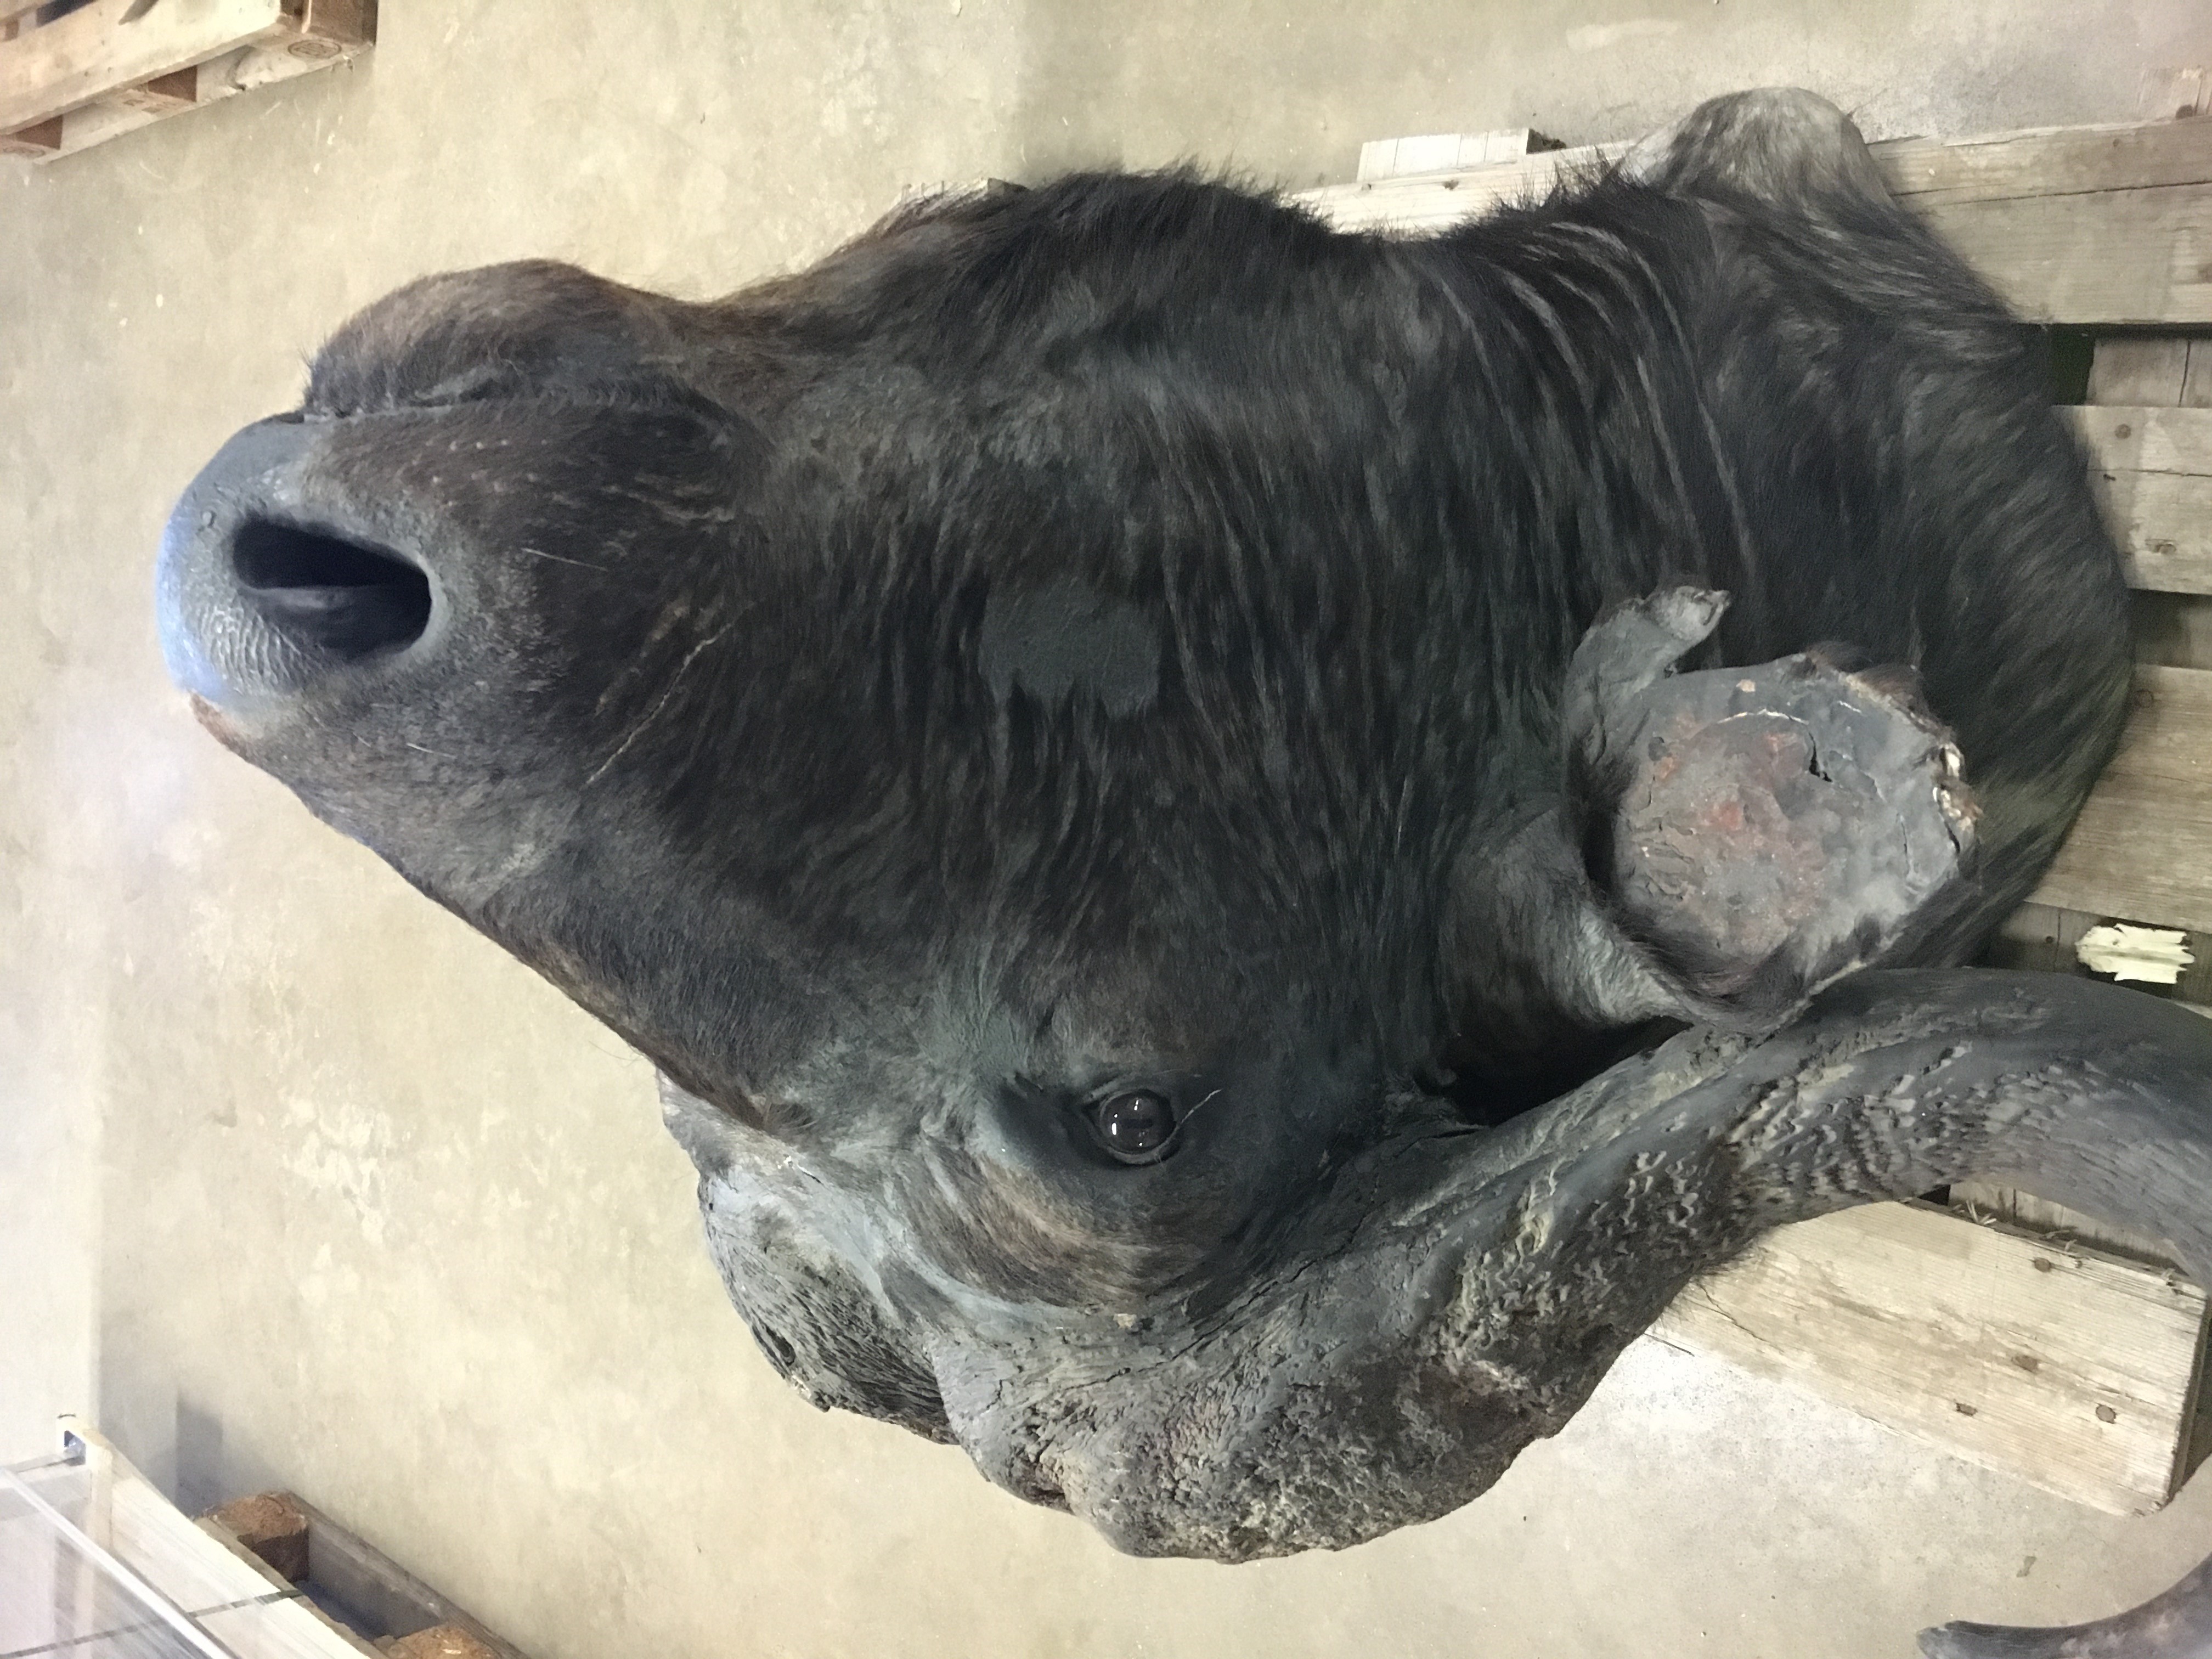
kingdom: Animalia
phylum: Chordata
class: Mammalia
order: Artiodactyla
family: Bovidae
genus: Syncerus
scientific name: Syncerus caffer
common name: African buffalo
